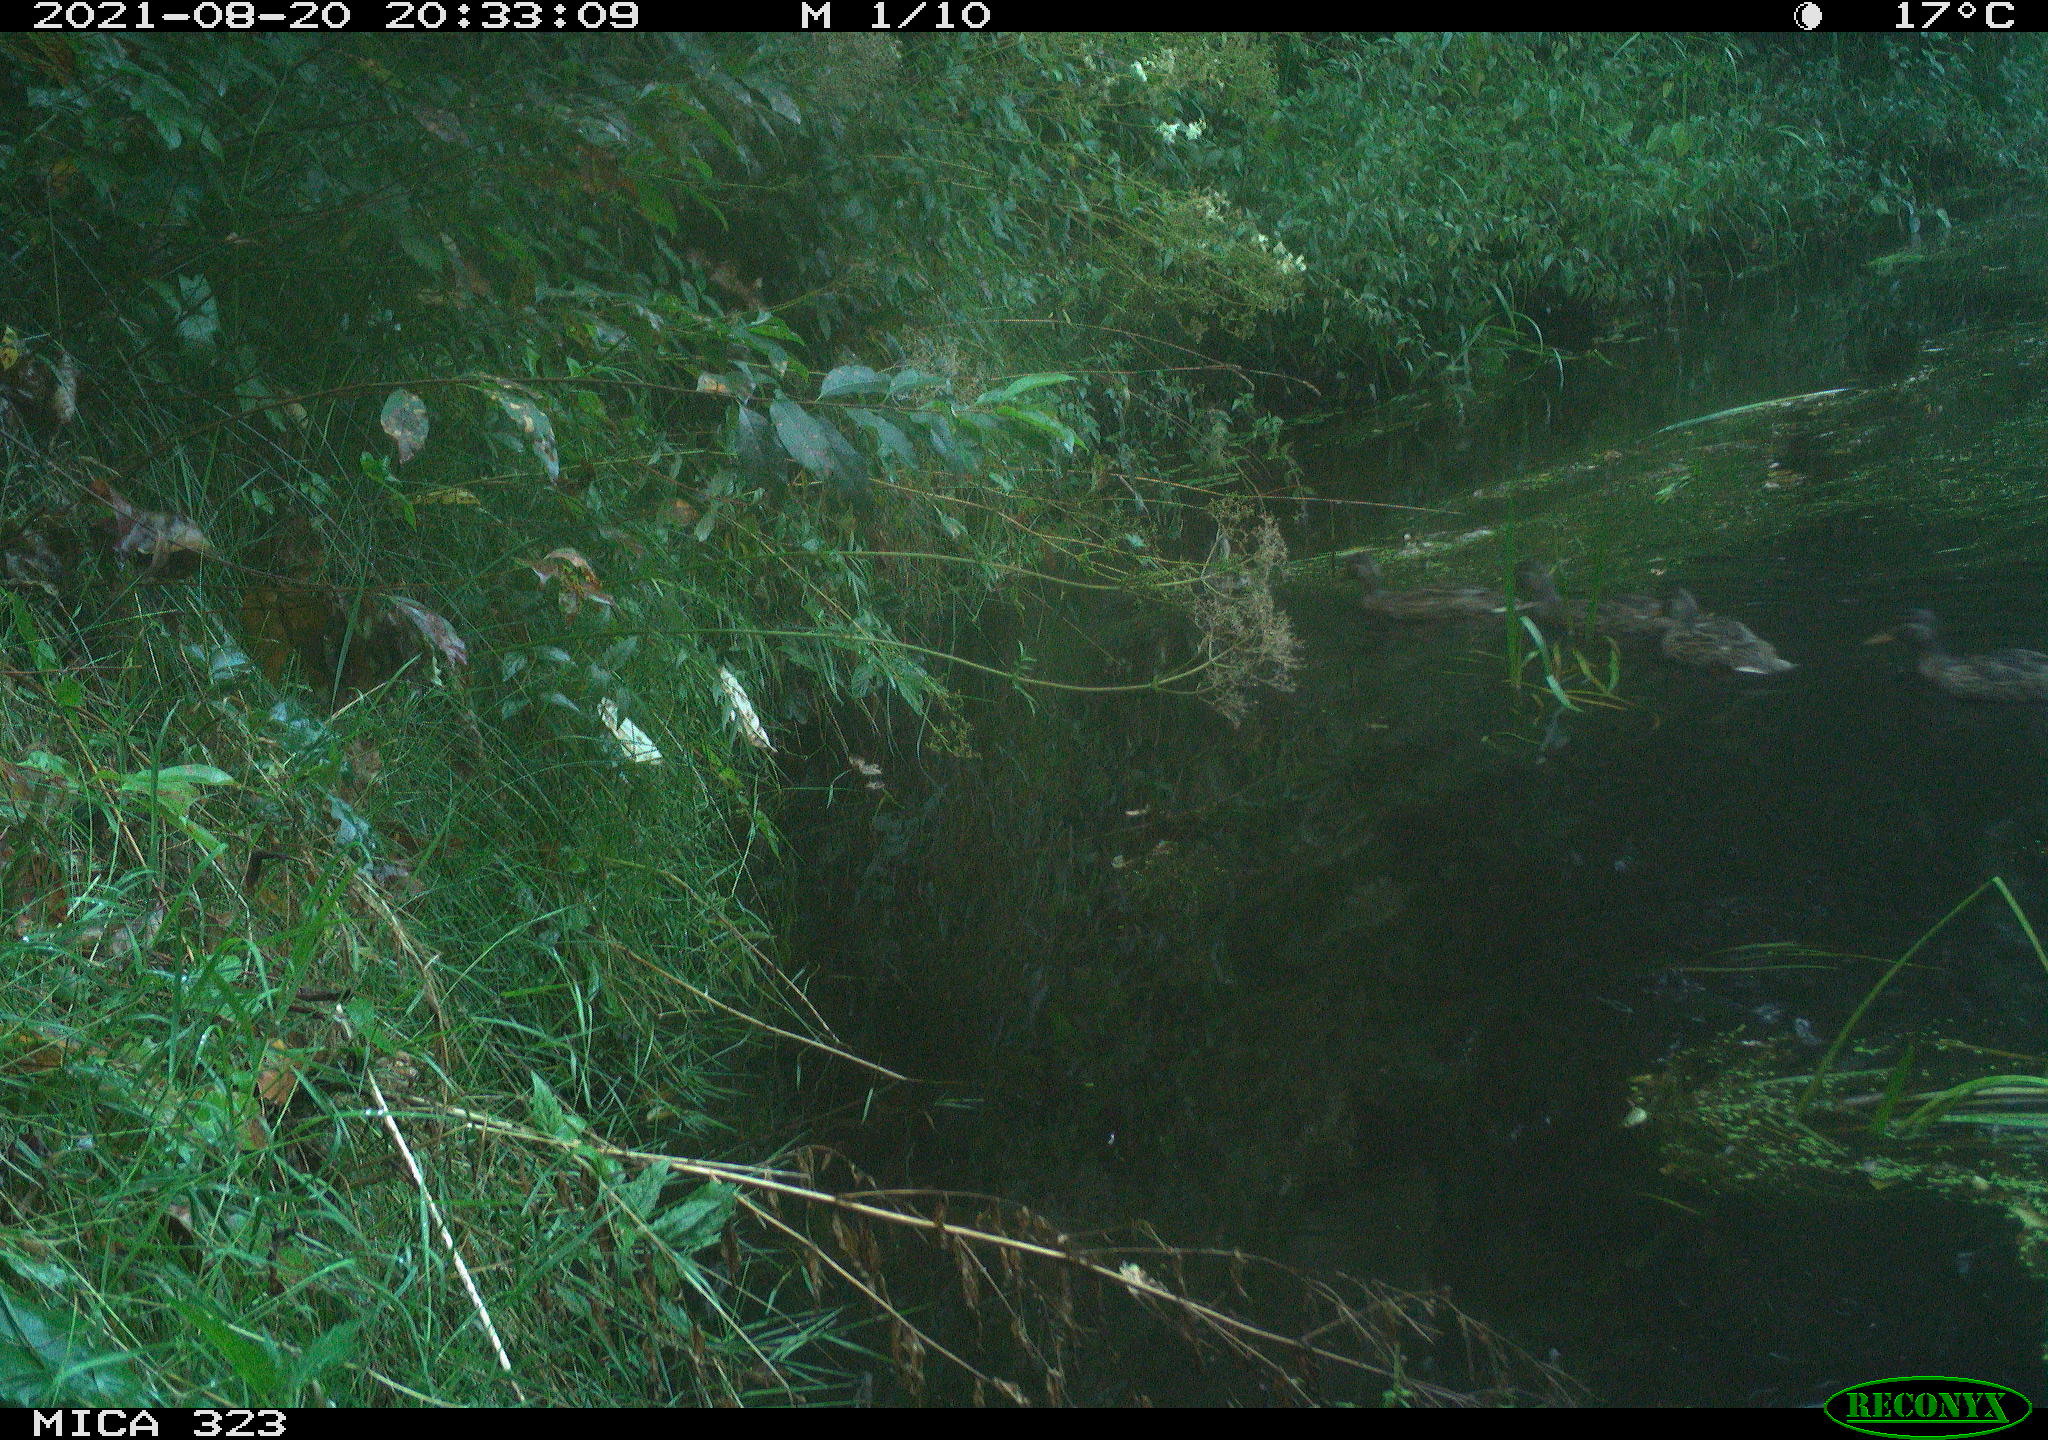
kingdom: Animalia
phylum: Chordata
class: Aves
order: Anseriformes
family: Anatidae
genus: Anas
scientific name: Anas platyrhynchos
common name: Mallard
